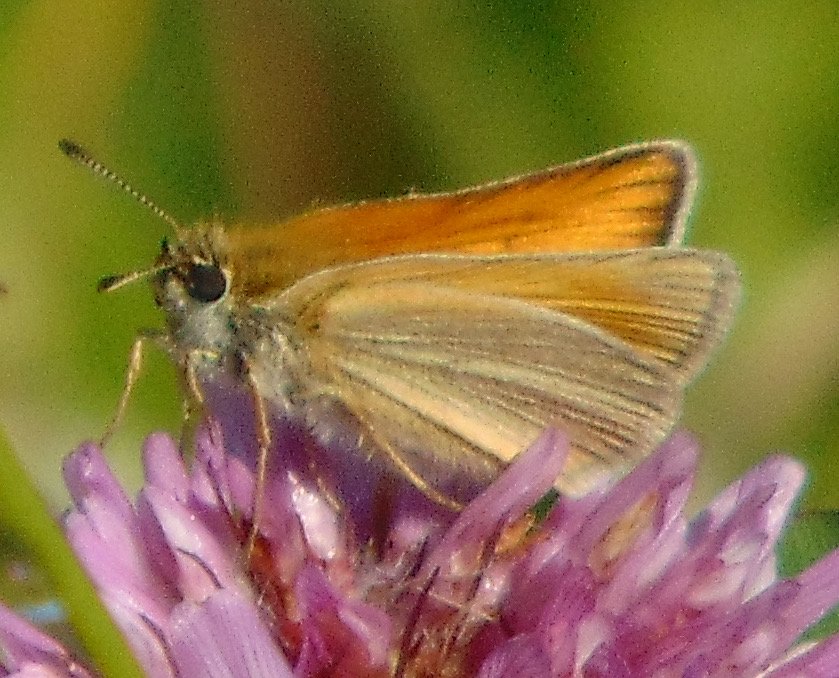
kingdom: Animalia
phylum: Arthropoda
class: Insecta
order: Lepidoptera
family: Hesperiidae
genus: Thymelicus
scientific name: Thymelicus lineola
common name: European Skipper
